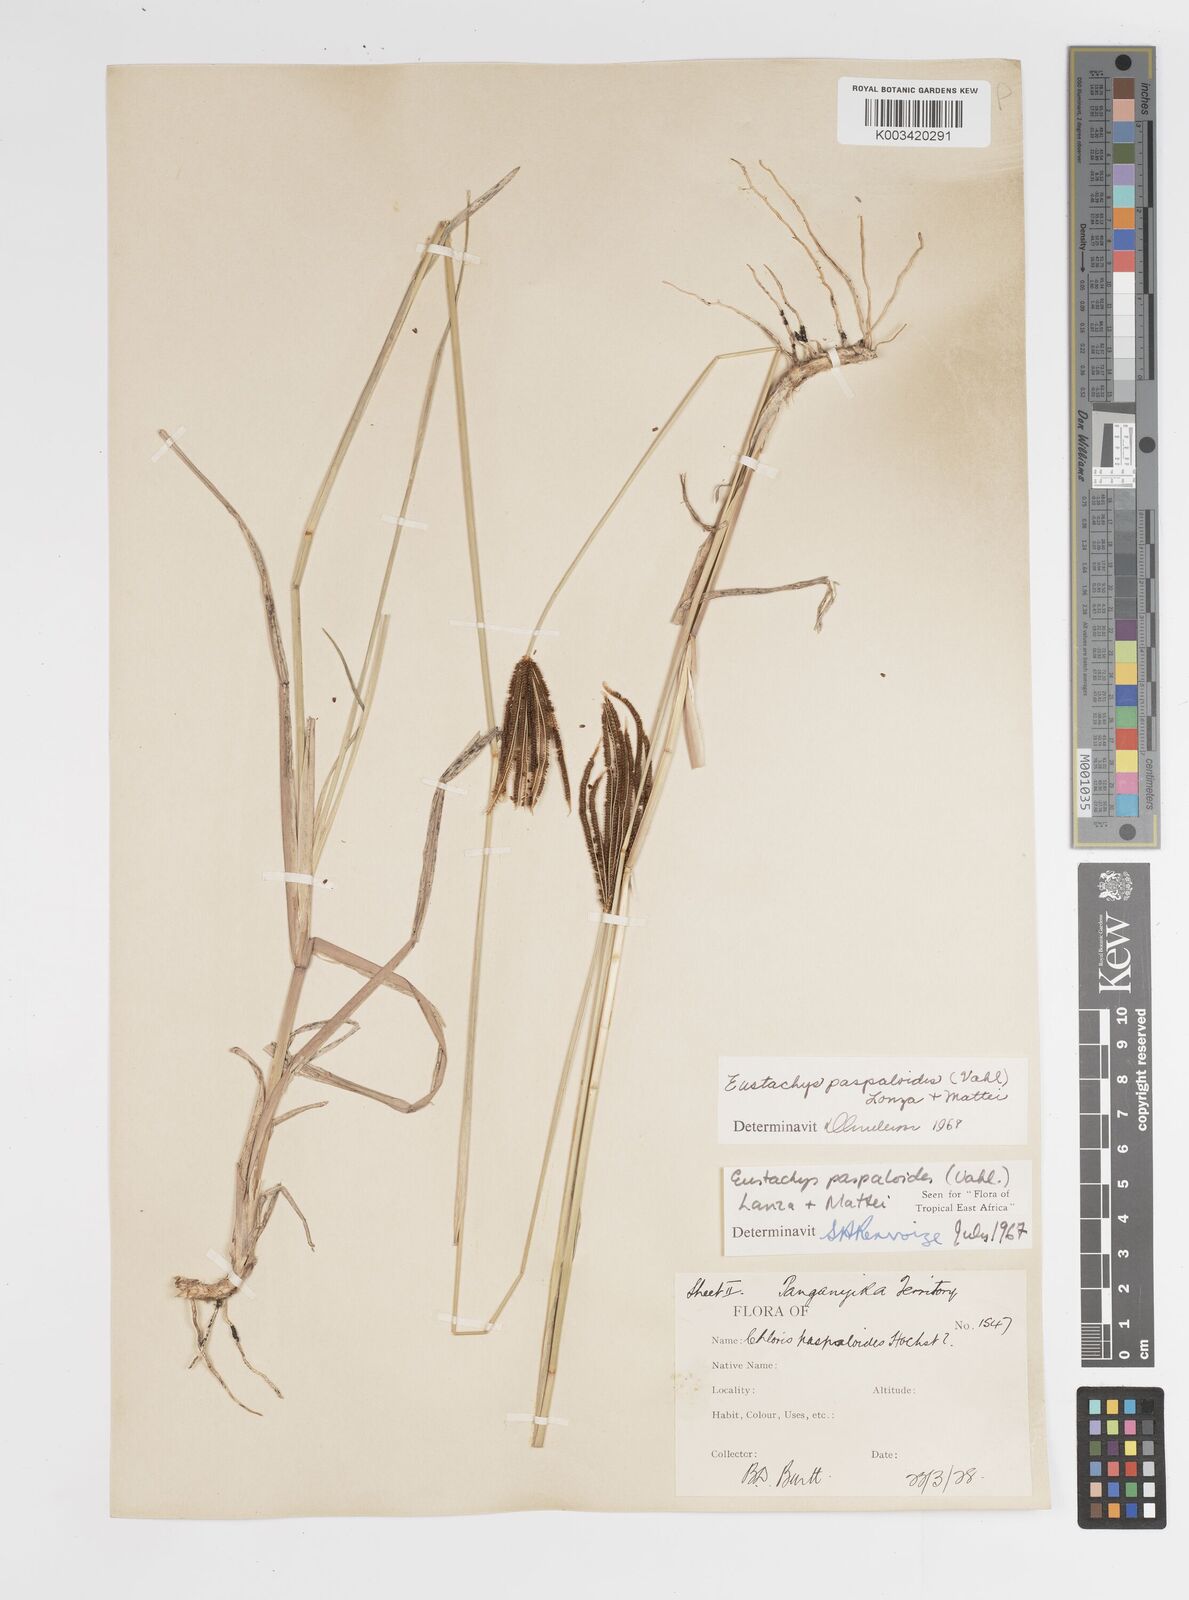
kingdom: Plantae
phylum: Tracheophyta
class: Liliopsida
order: Poales
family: Poaceae
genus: Eustachys
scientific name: Eustachys paspaloides
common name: Caribbean fingergrass
